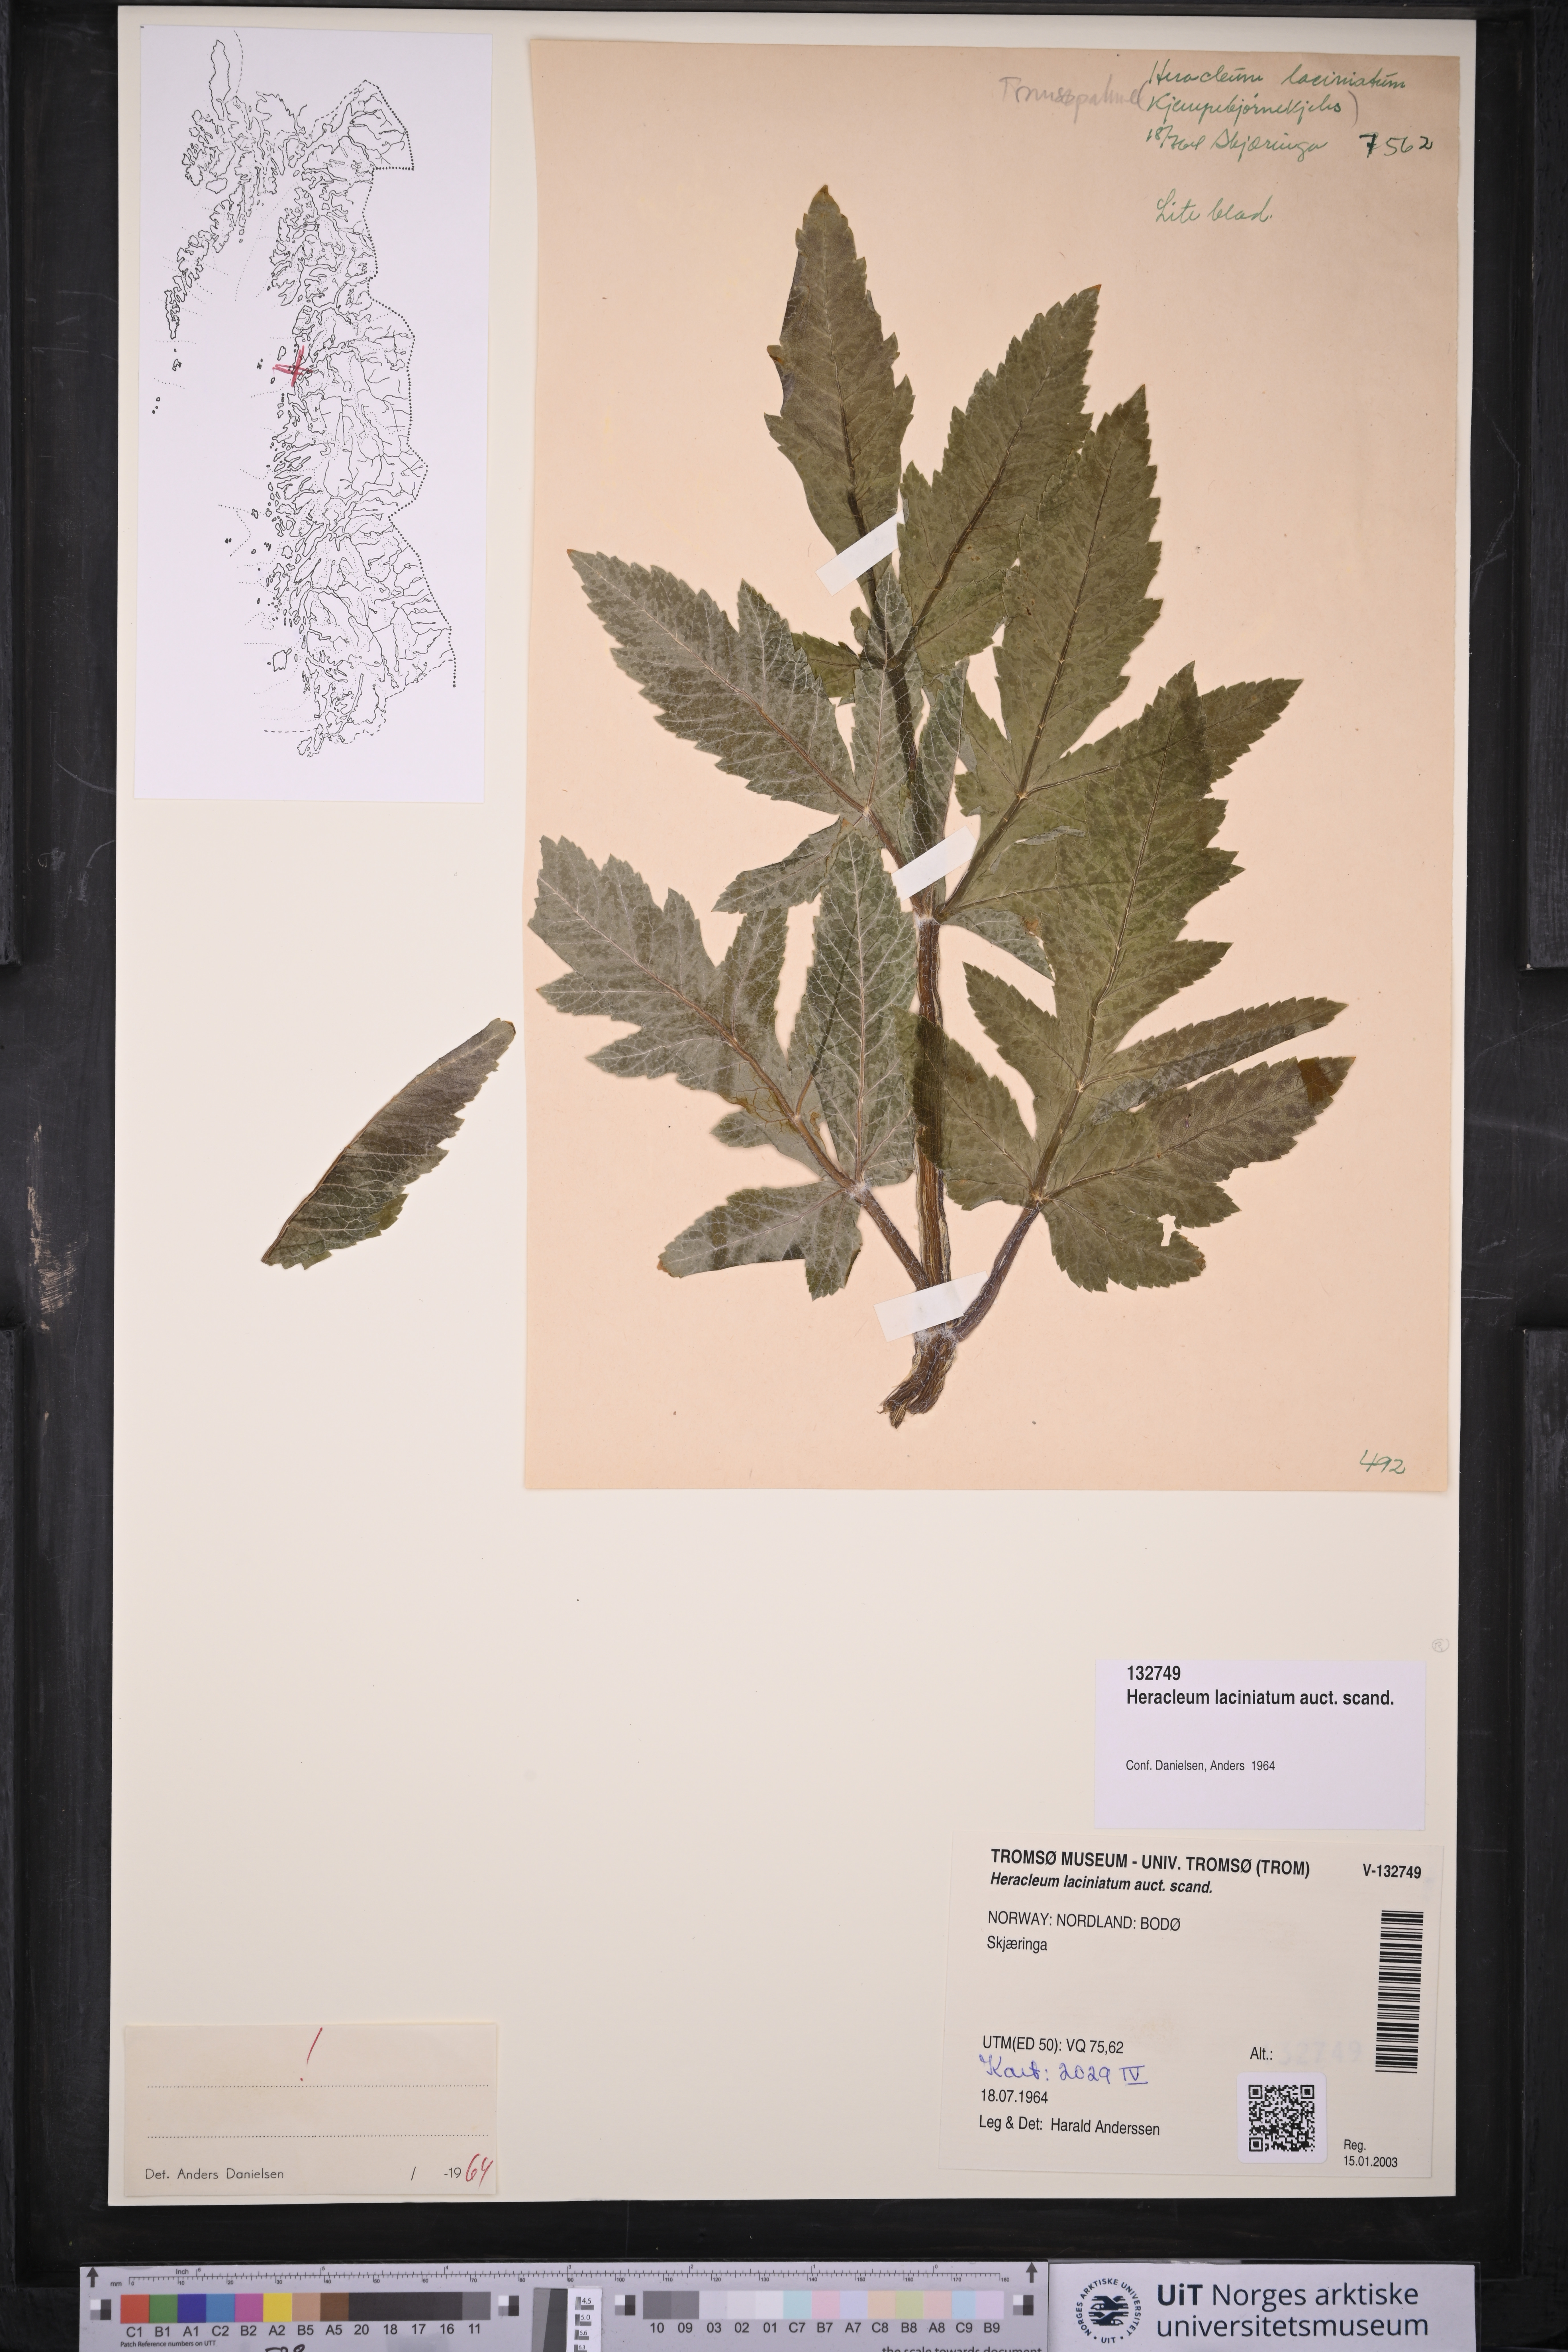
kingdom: Plantae
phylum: Tracheophyta
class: Magnoliopsida
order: Apiales
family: Apiaceae
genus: Heracleum
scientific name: Heracleum persicum
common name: Persian hogweed
